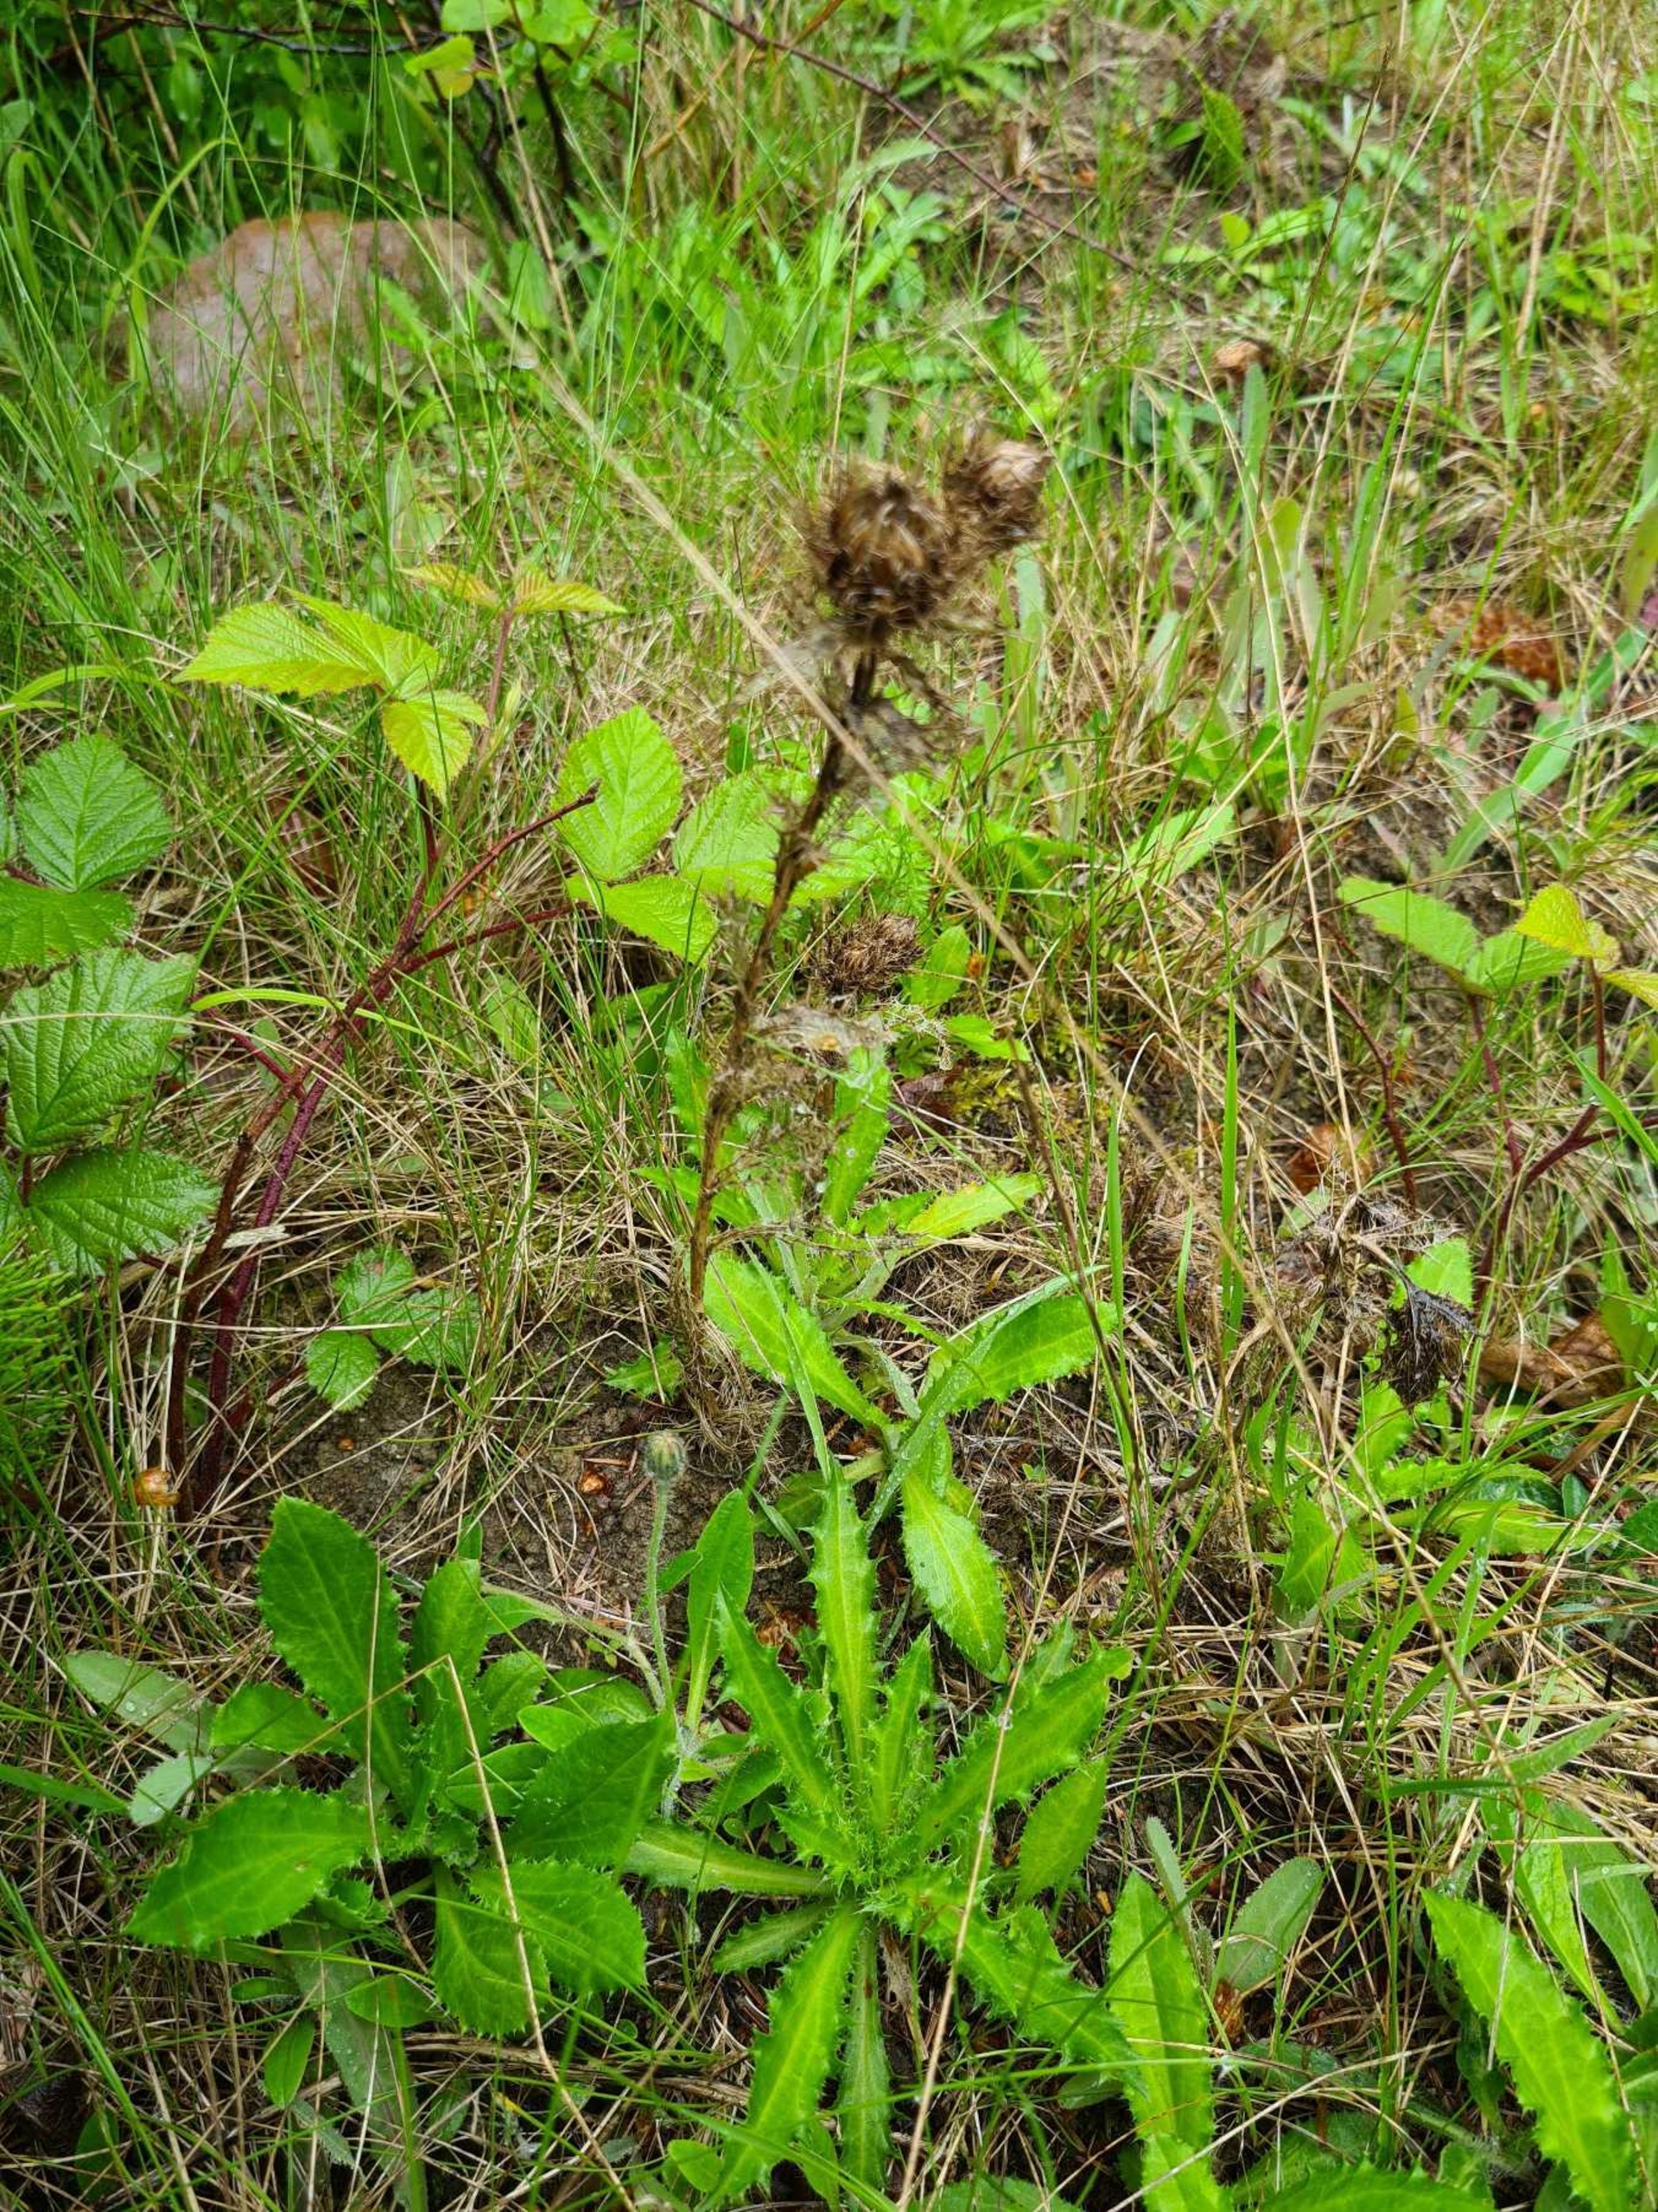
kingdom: Plantae
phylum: Tracheophyta
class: Magnoliopsida
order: Asterales
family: Asteraceae
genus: Carlina
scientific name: Carlina vulgaris
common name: Bakketidsel
